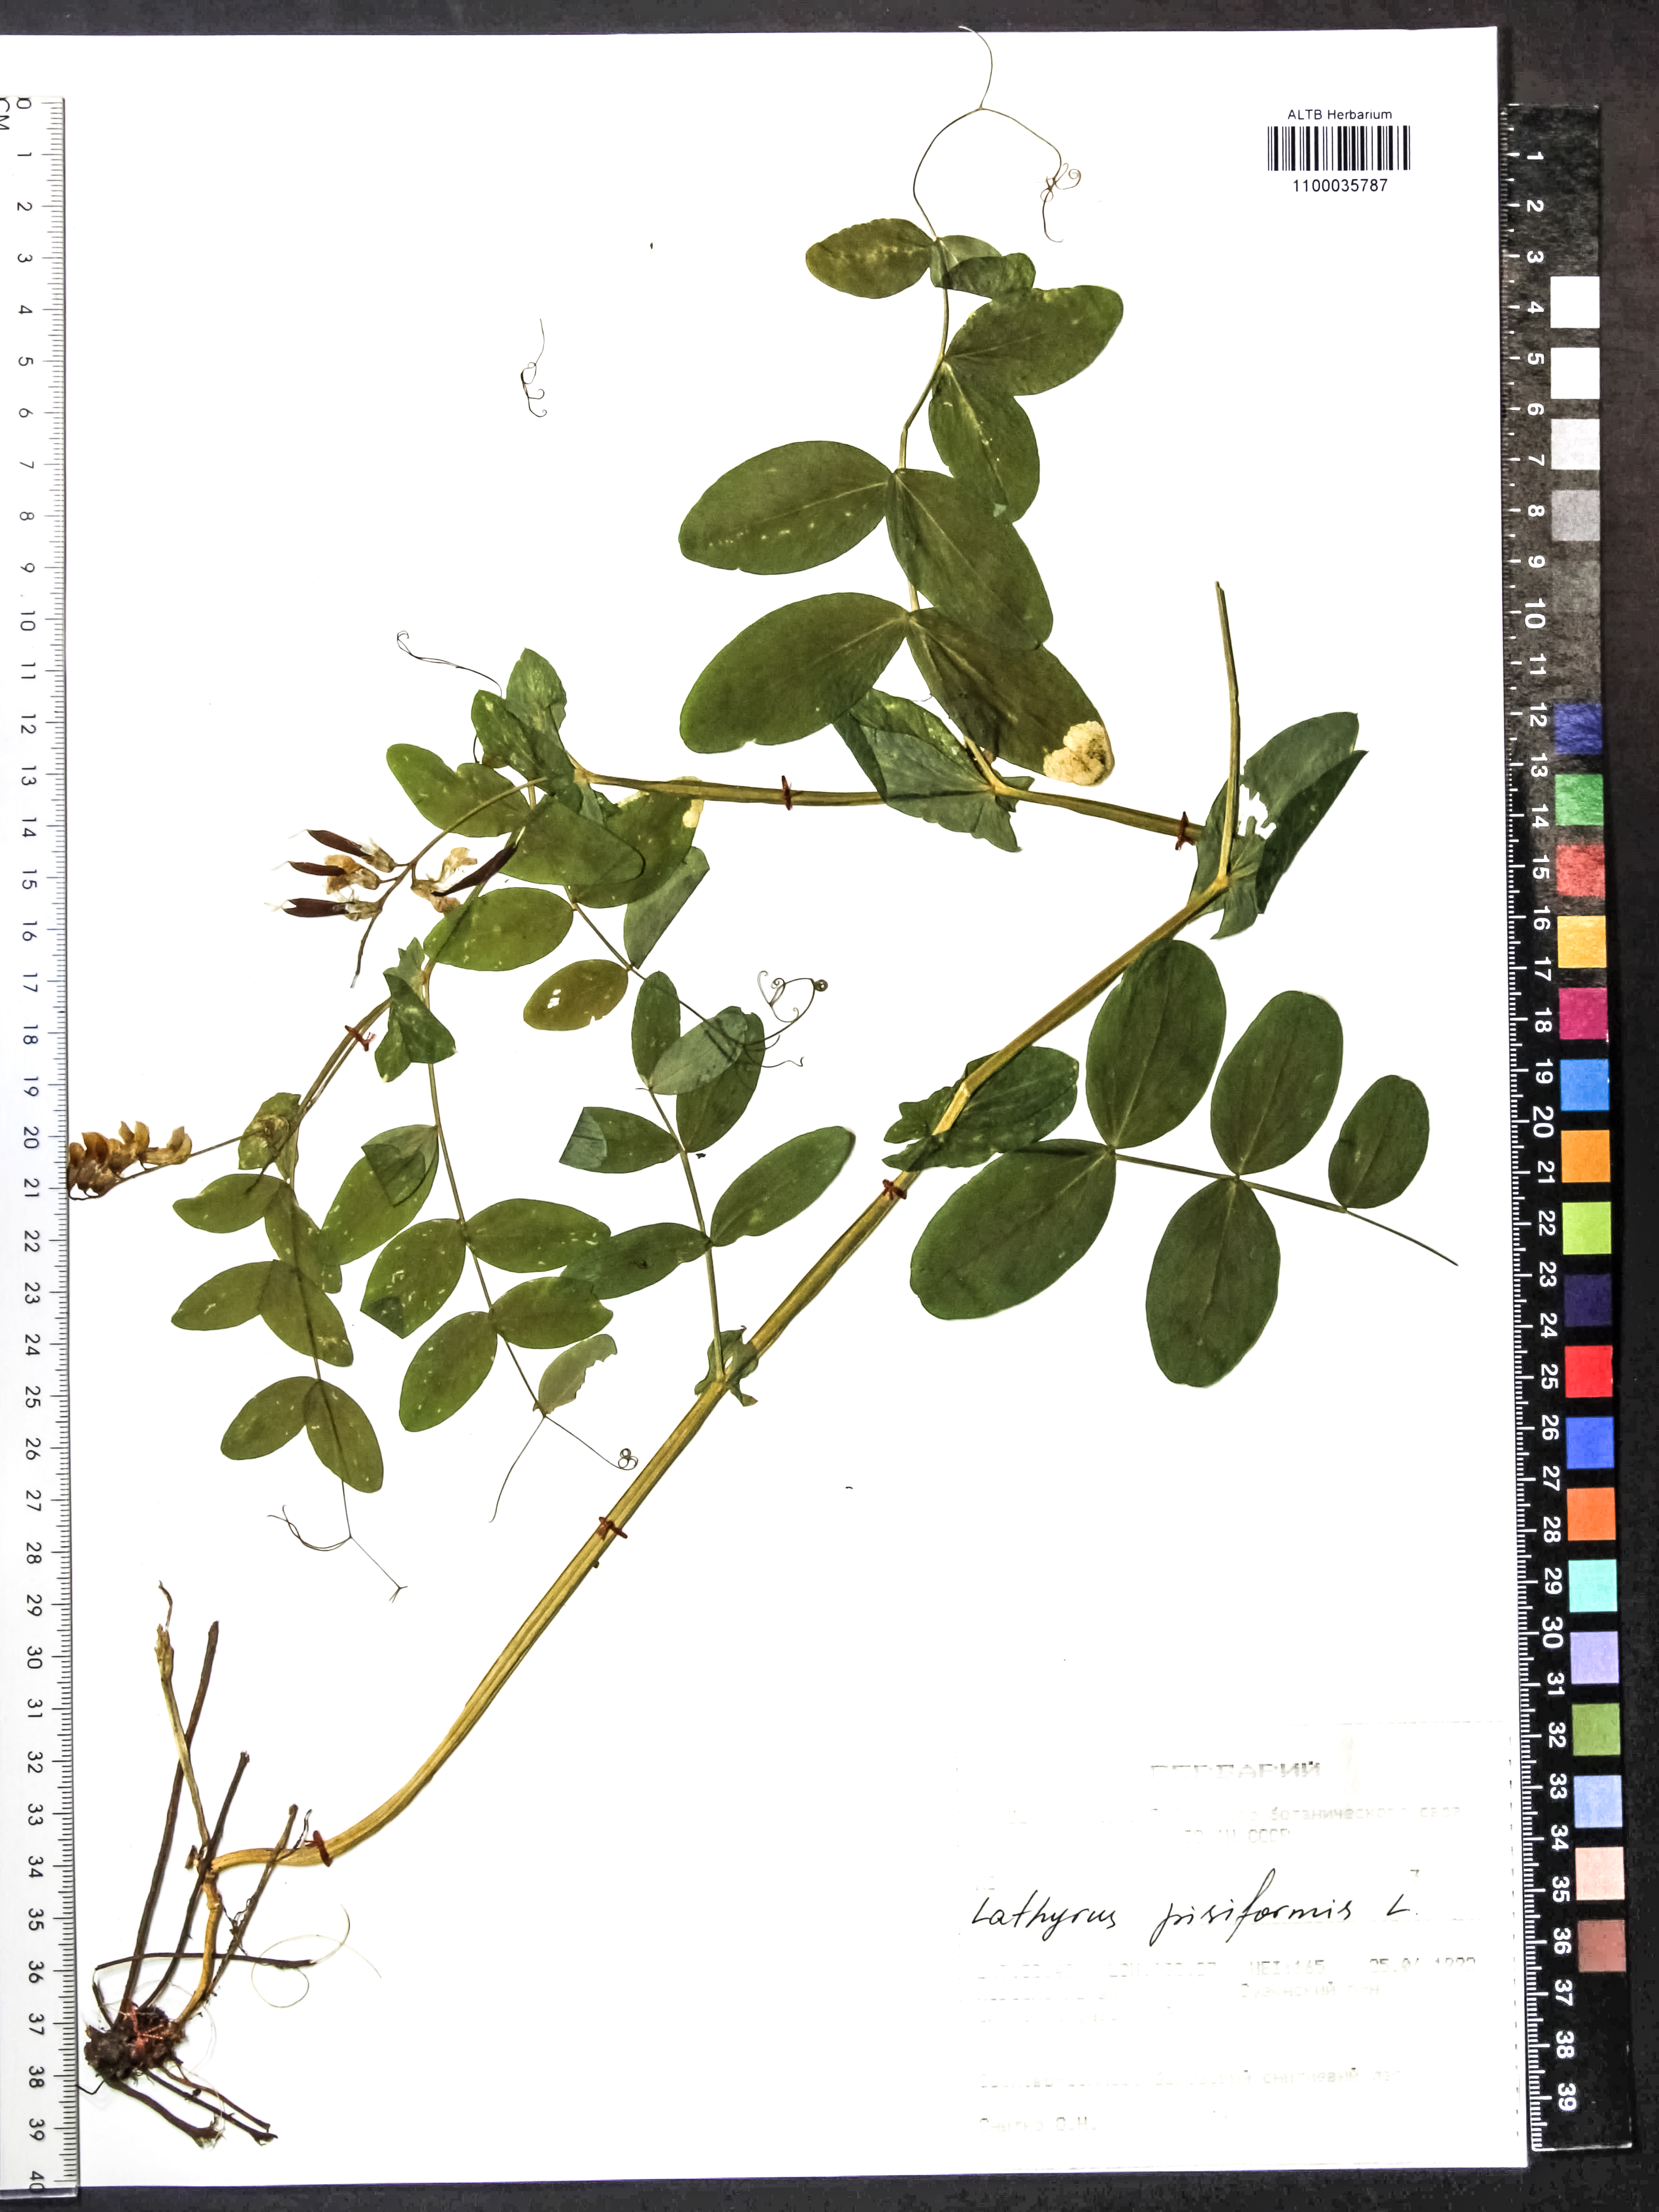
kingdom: Plantae
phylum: Tracheophyta
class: Magnoliopsida
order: Fabales
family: Fabaceae
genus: Lathyrus
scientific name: Lathyrus pisiformis
